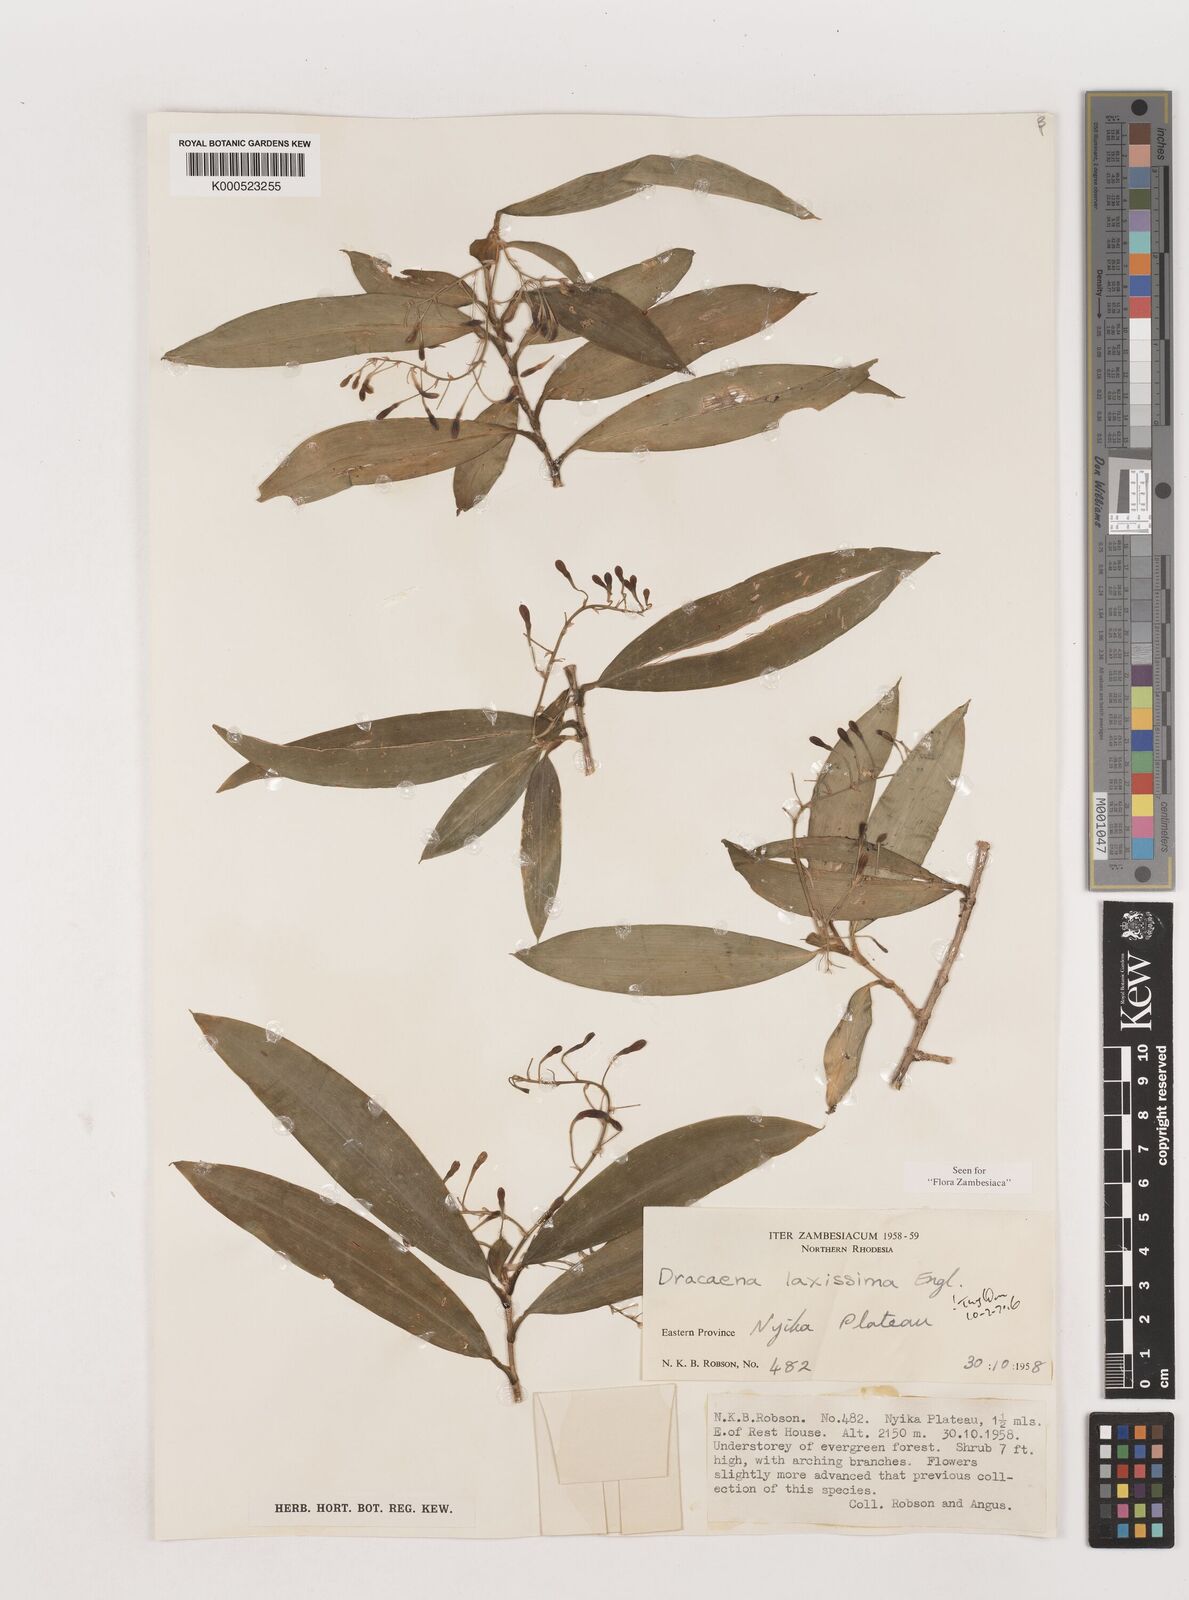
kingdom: Plantae
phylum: Tracheophyta
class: Liliopsida
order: Asparagales
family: Asparagaceae
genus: Dracaena
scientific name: Dracaena laxissima
